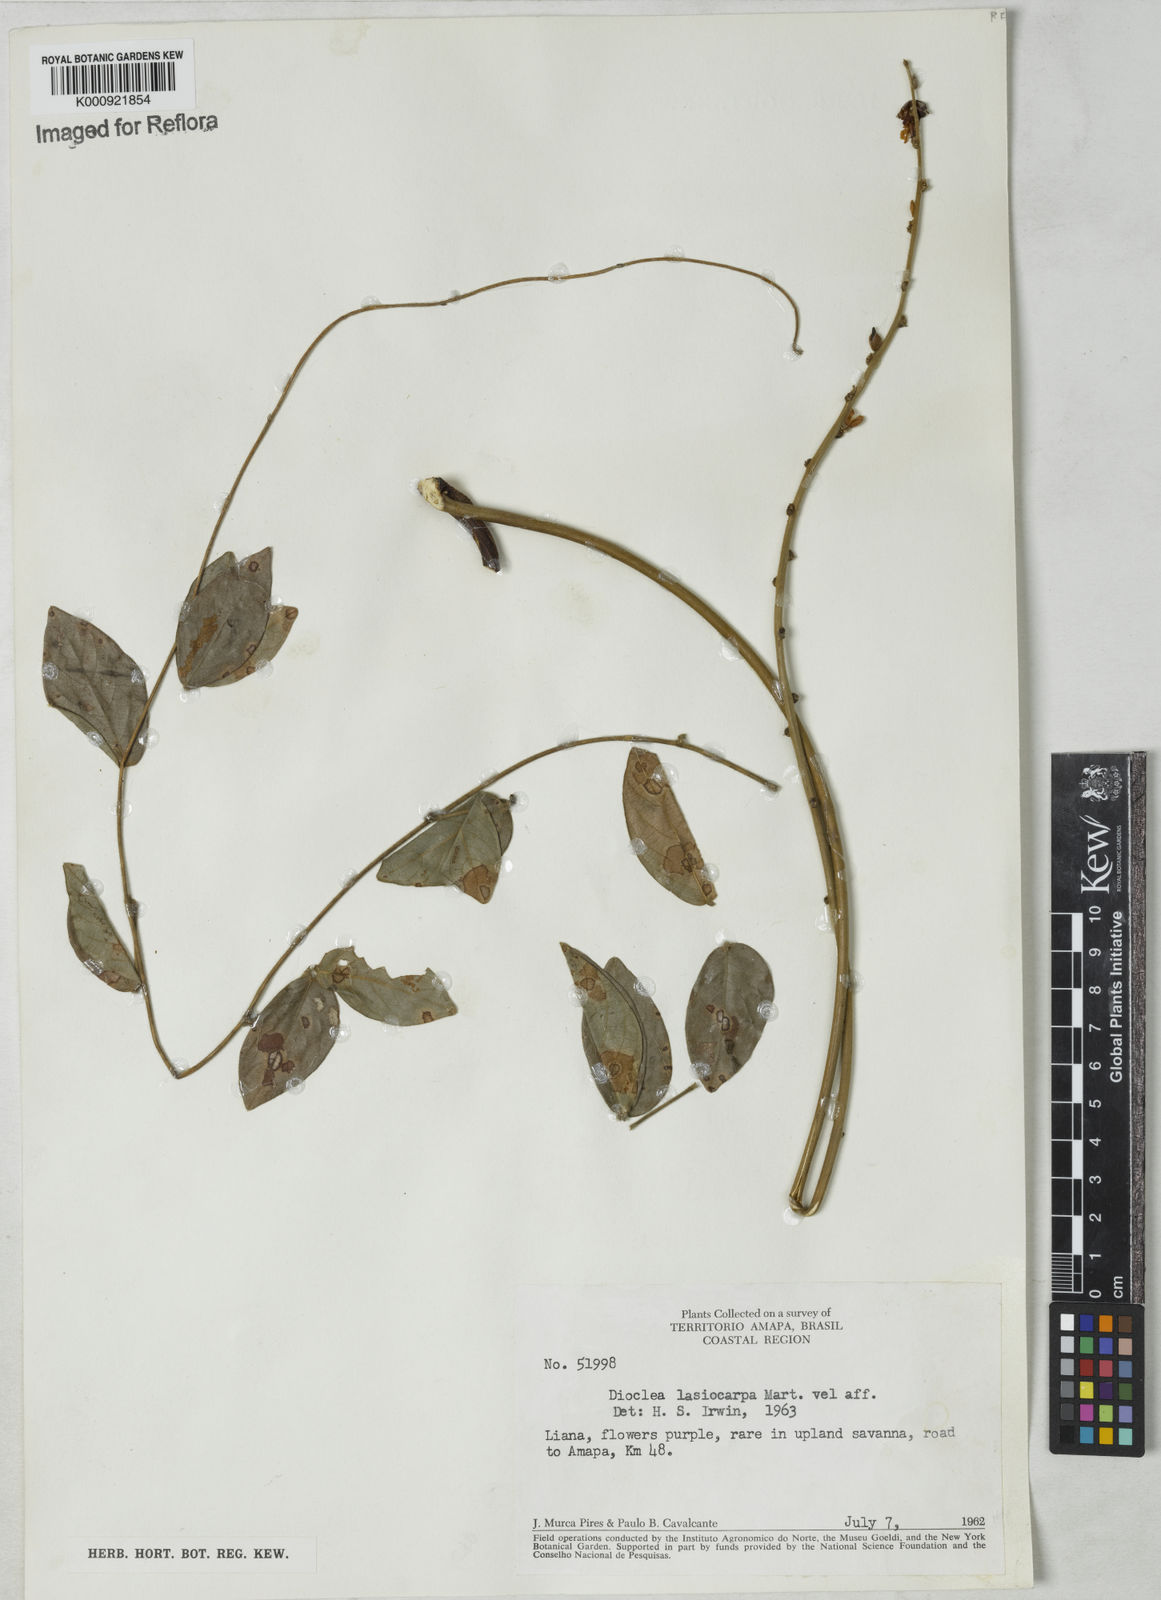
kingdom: Plantae
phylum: Tracheophyta
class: Magnoliopsida
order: Fabales
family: Fabaceae
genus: Dioclea
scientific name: Dioclea virgata
